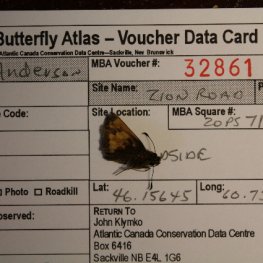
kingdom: Animalia
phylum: Arthropoda
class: Insecta
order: Lepidoptera
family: Hesperiidae
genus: Lon
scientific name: Lon hobomok
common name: Hobomok Skipper
